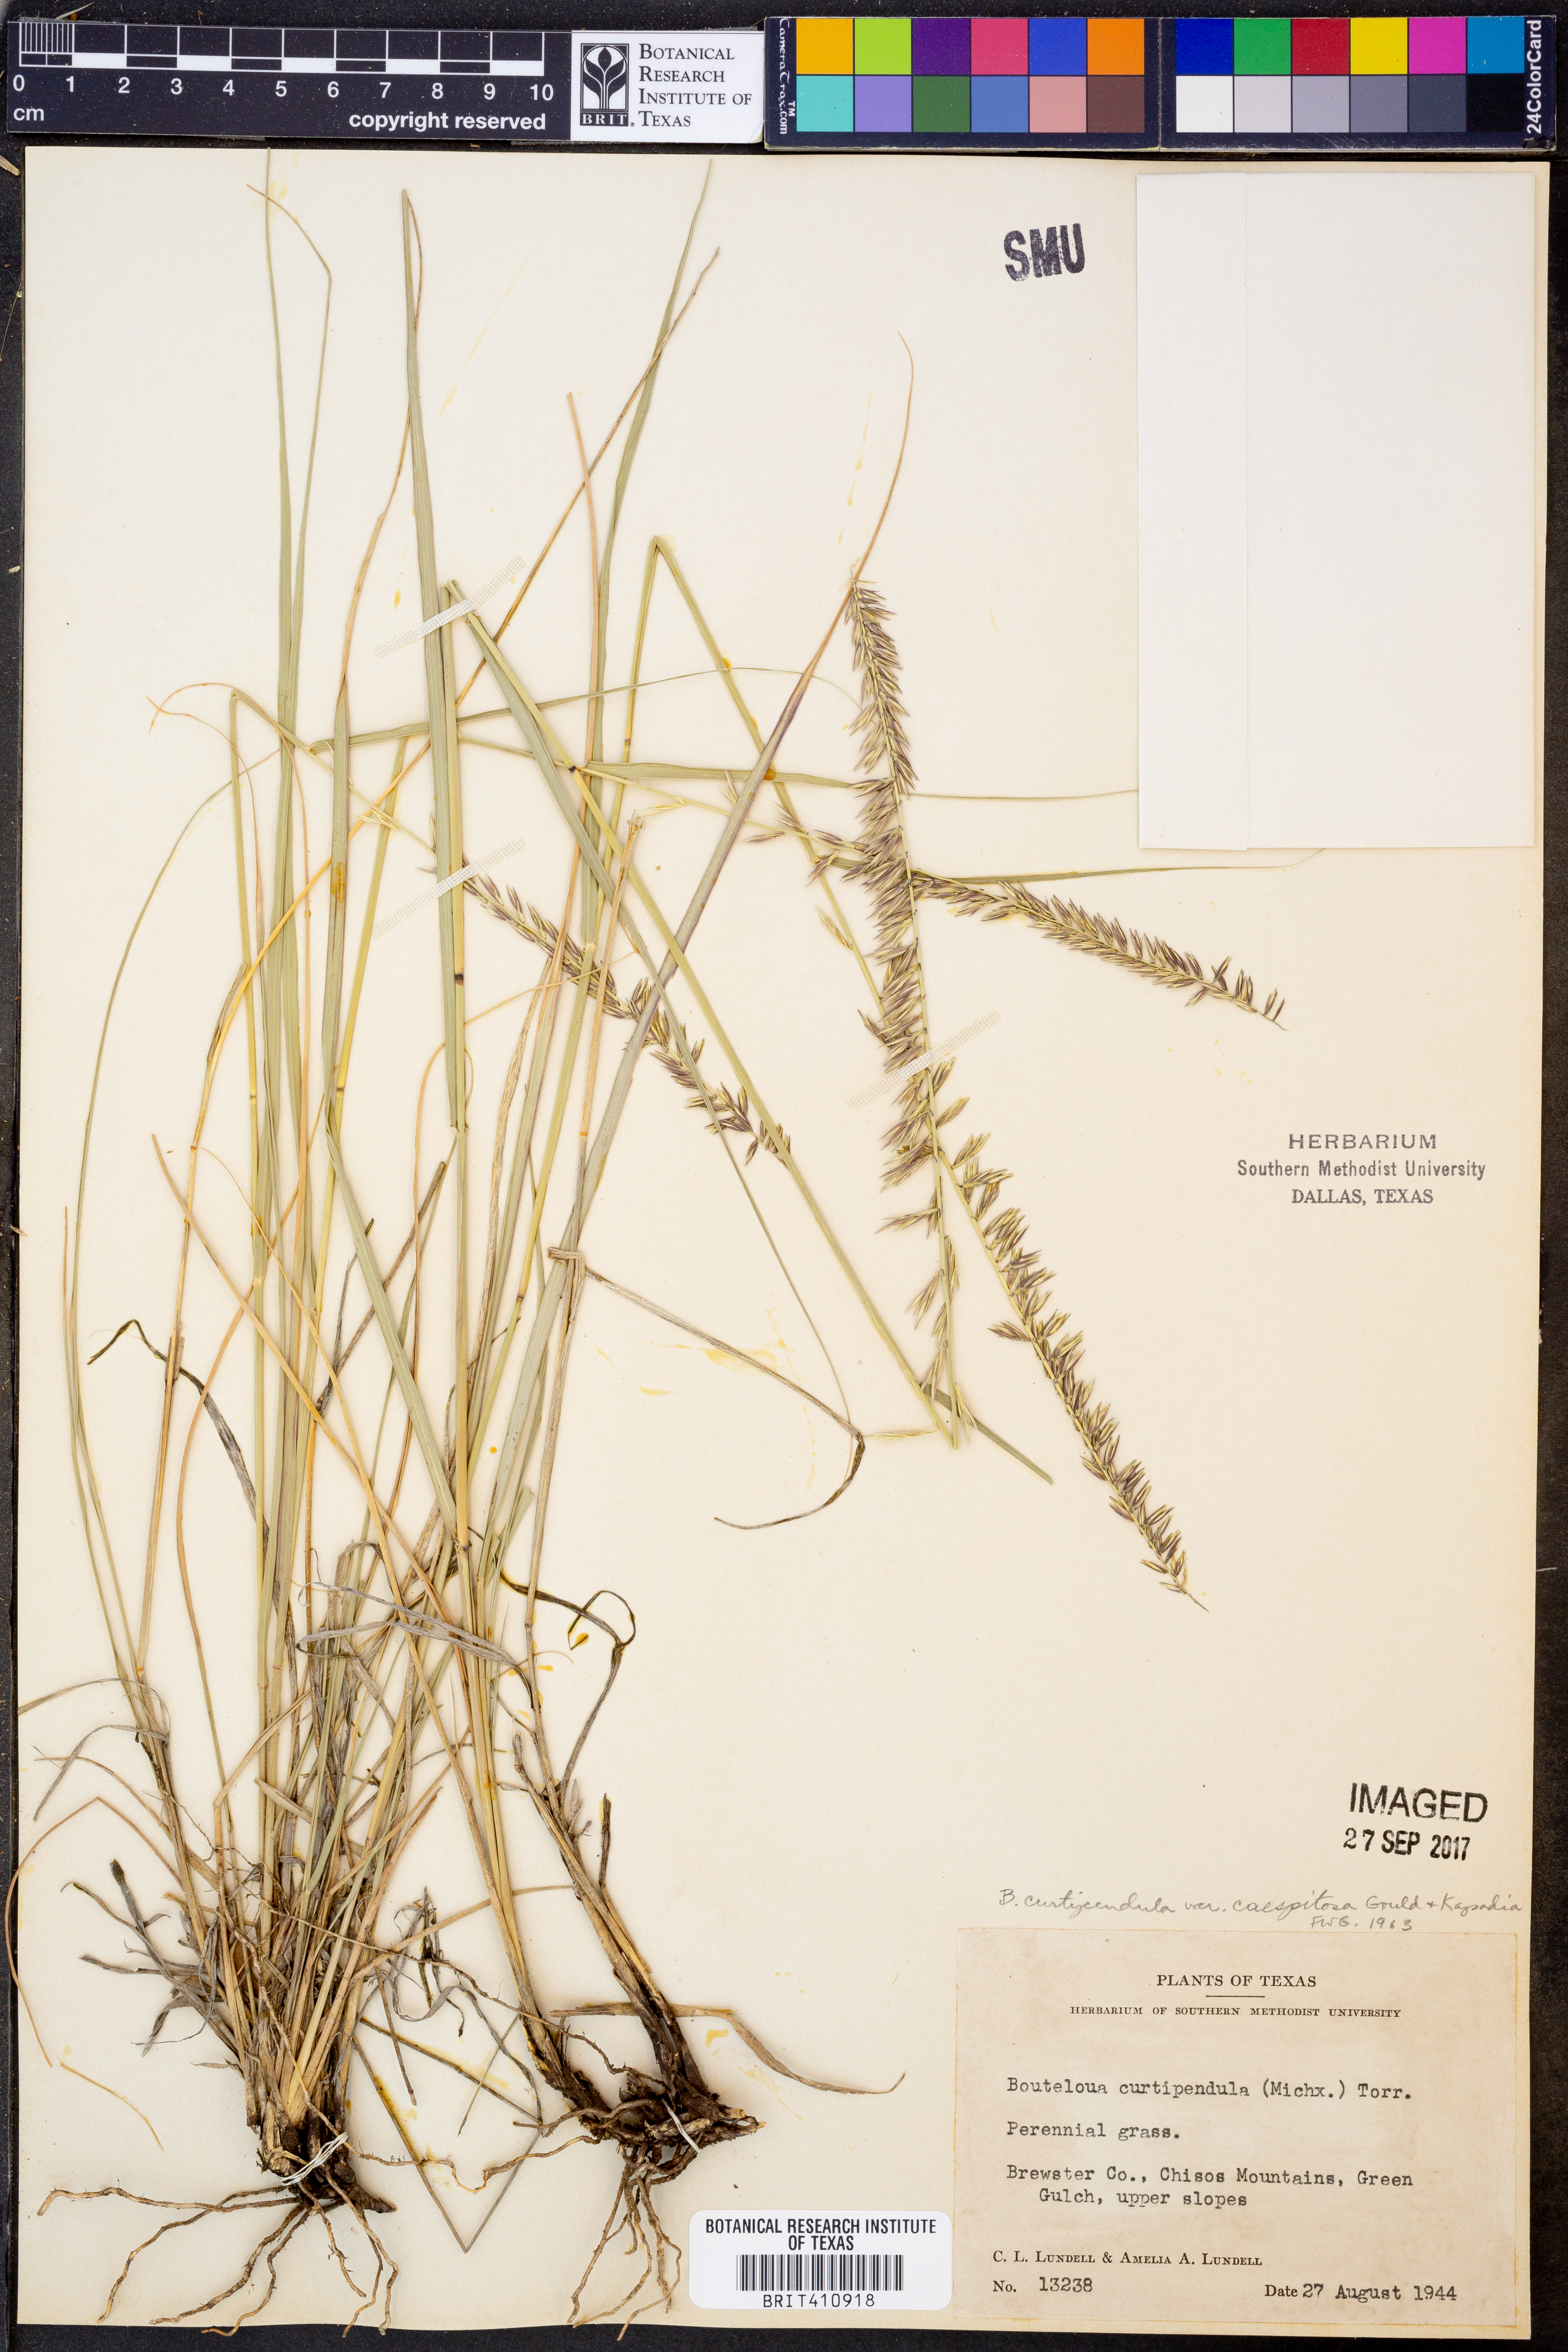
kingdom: Plantae
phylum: Tracheophyta
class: Liliopsida
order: Poales
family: Poaceae
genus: Bouteloua
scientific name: Bouteloua curtipendula
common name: Side-oats grama
